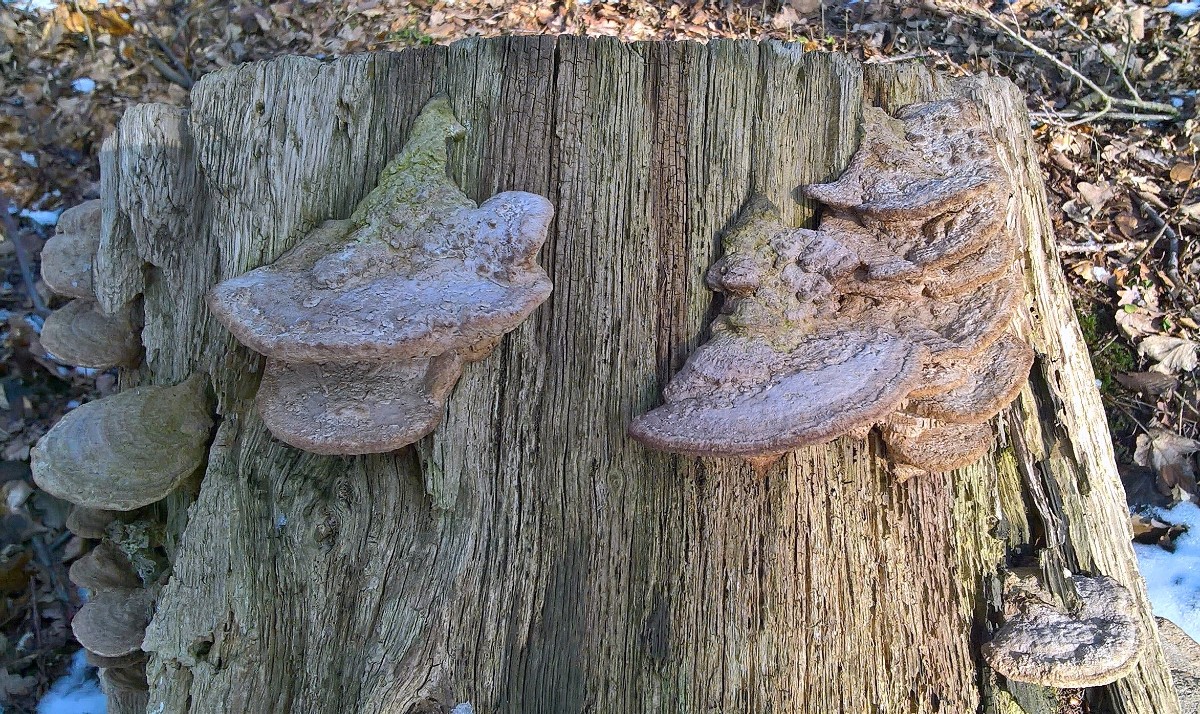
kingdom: Fungi
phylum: Basidiomycota
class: Agaricomycetes
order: Polyporales
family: Fomitopsidaceae
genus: Daedalea
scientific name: Daedalea quercina
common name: ege-labyrintsvamp
